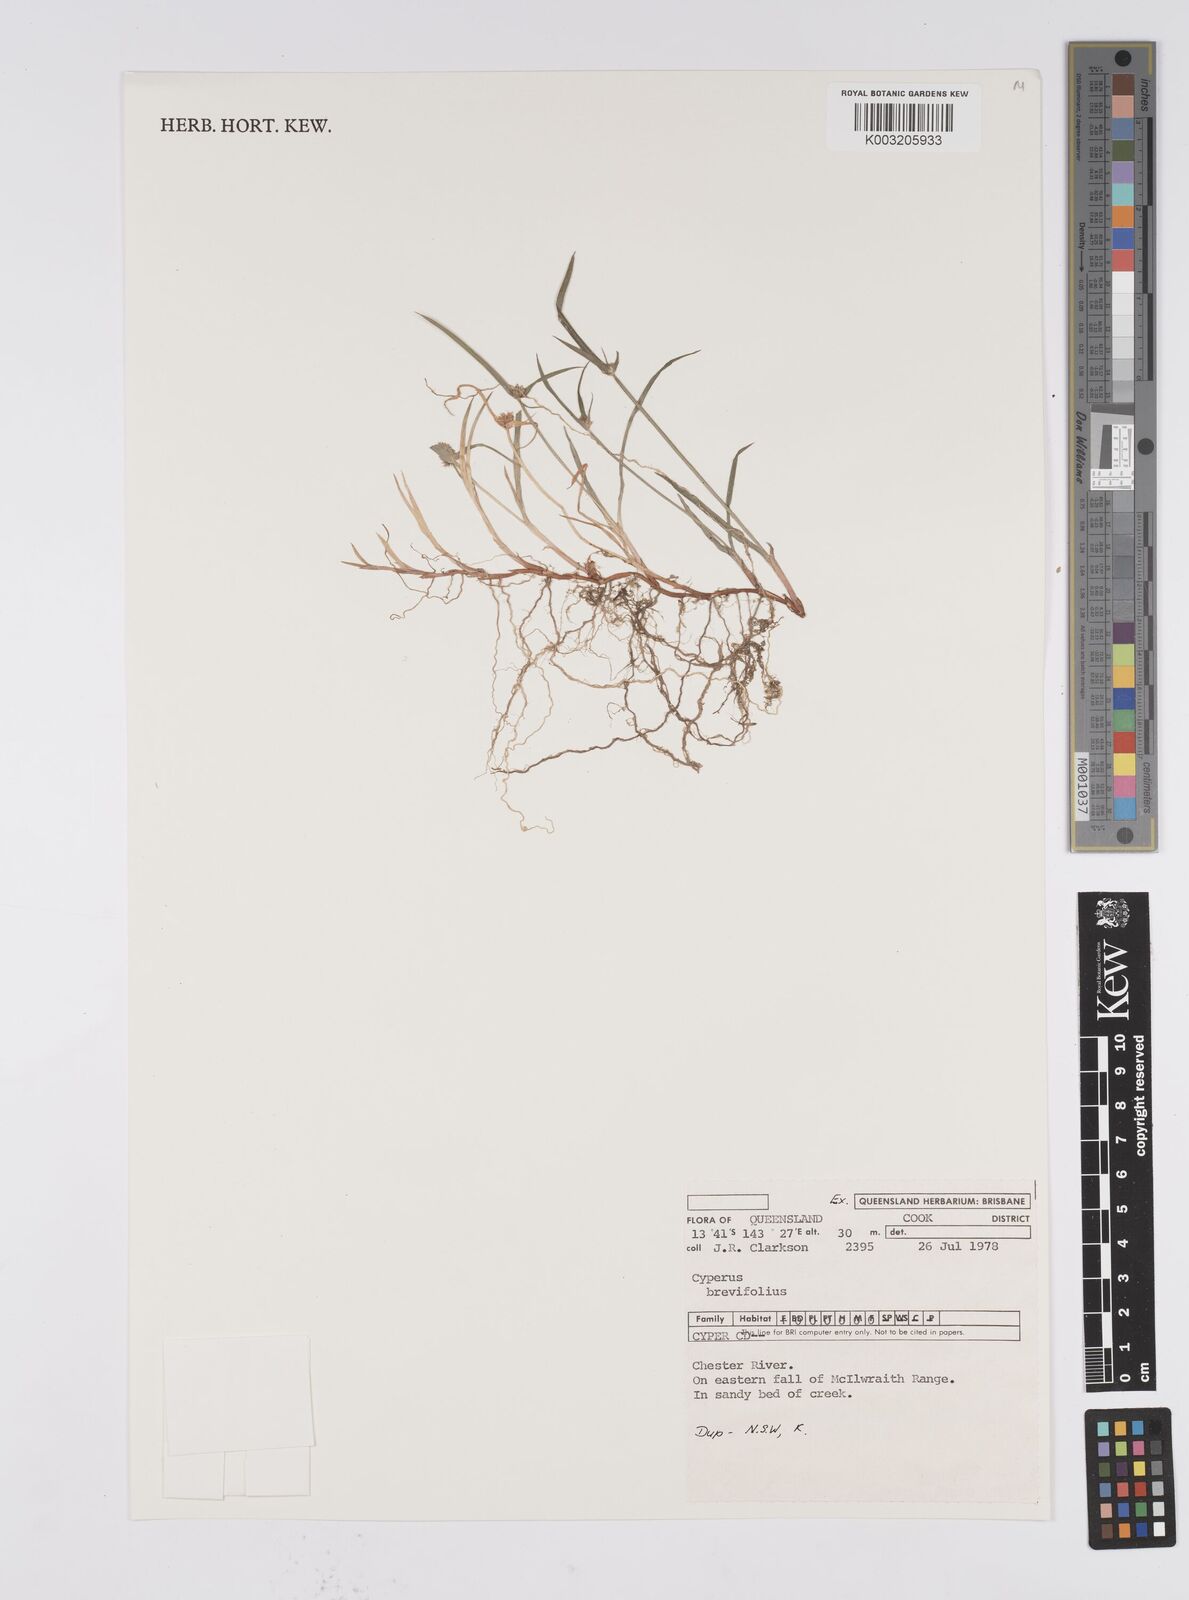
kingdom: Plantae
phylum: Tracheophyta
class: Liliopsida
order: Poales
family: Cyperaceae
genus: Cyperus
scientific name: Cyperus brevifolius
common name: Globe kyllinga
